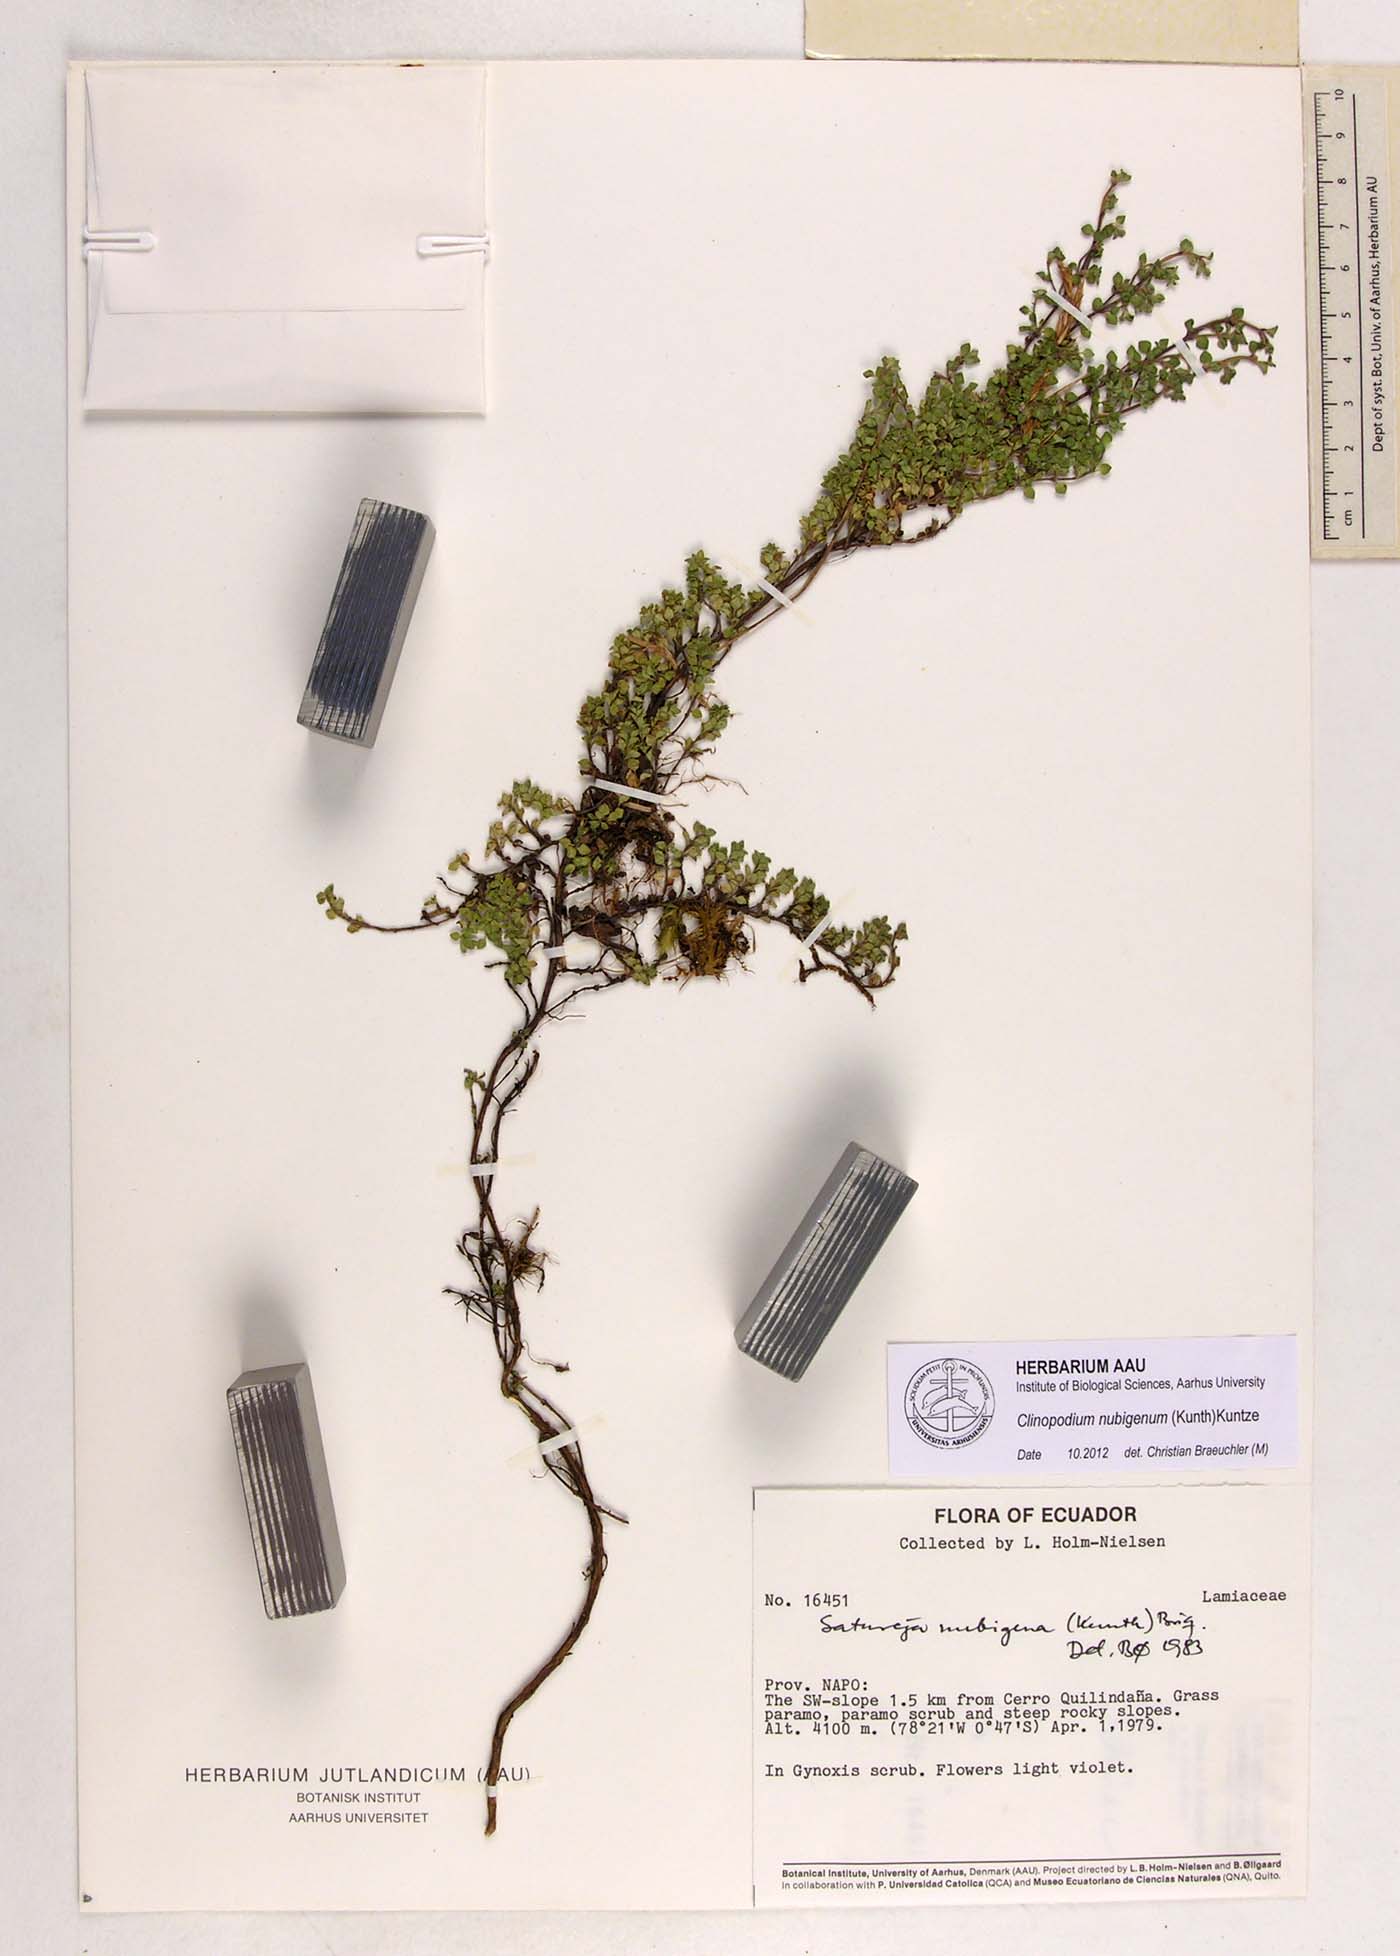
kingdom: Plantae
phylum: Tracheophyta
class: Liliopsida
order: Zingiberales
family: Marantaceae
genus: Ischnosiphon
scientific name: Ischnosiphon
